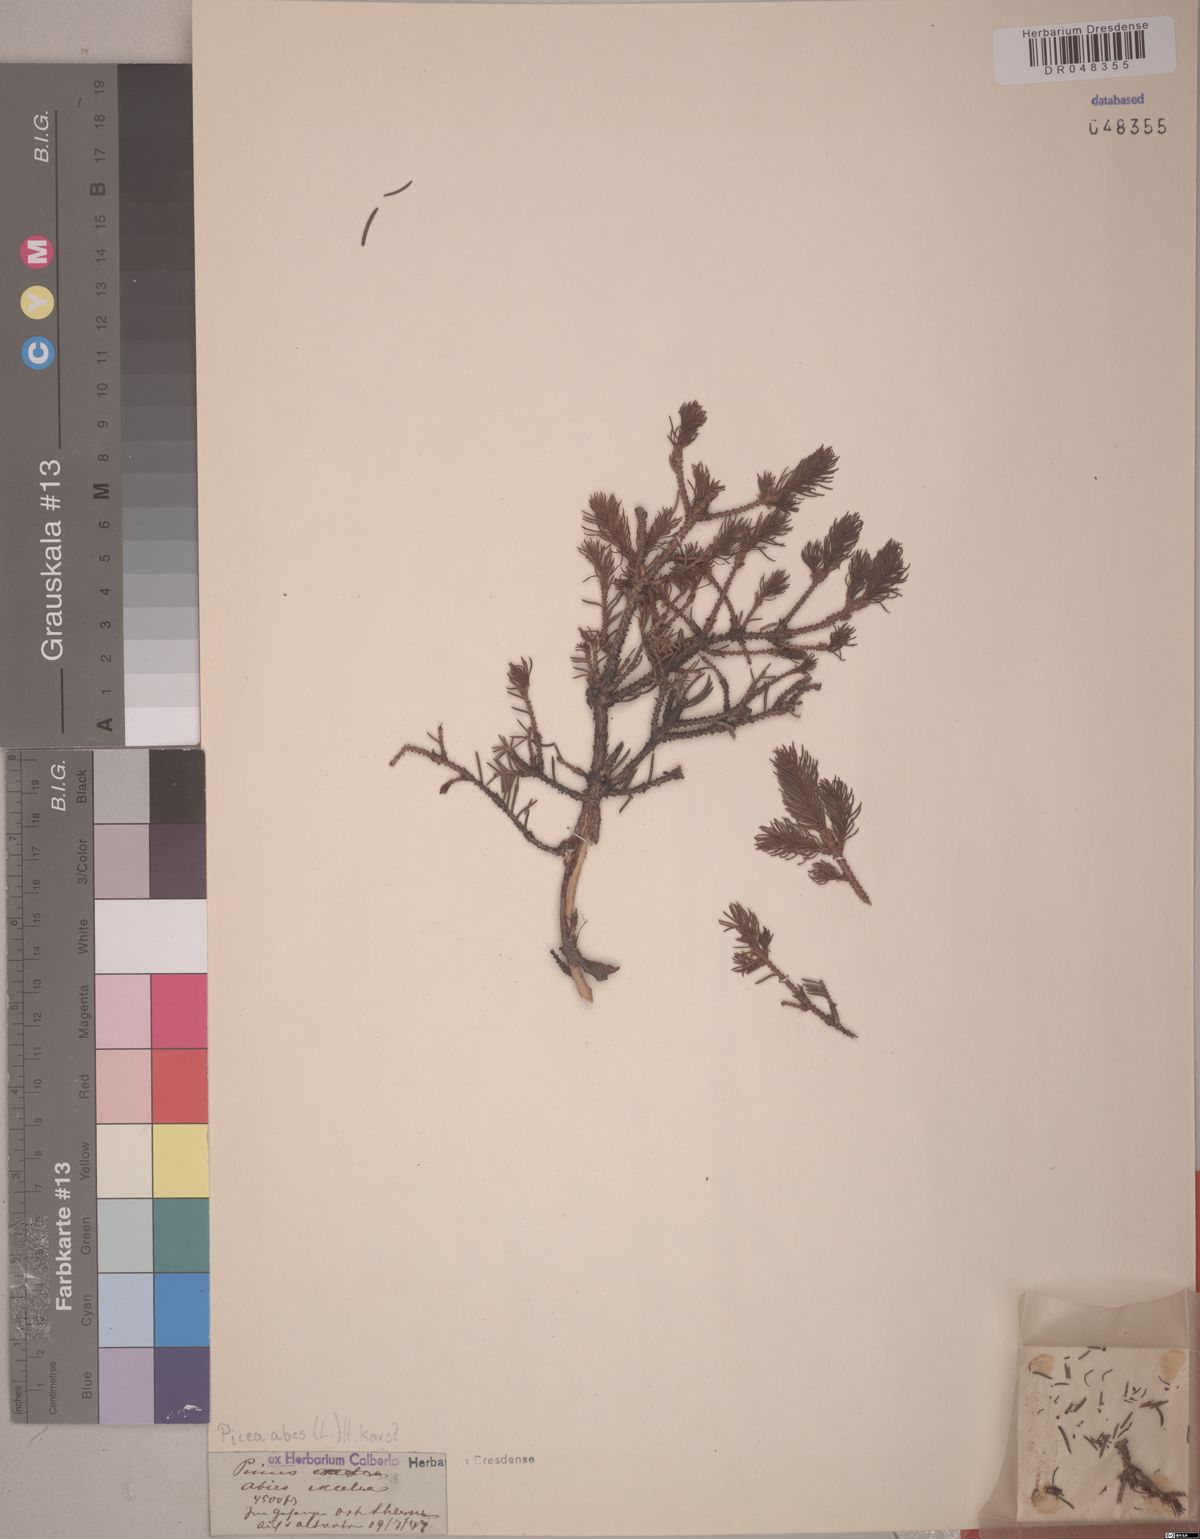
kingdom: Plantae
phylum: Tracheophyta
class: Pinopsida
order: Pinales
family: Pinaceae
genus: Picea
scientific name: Picea abies
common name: Norway spruce
